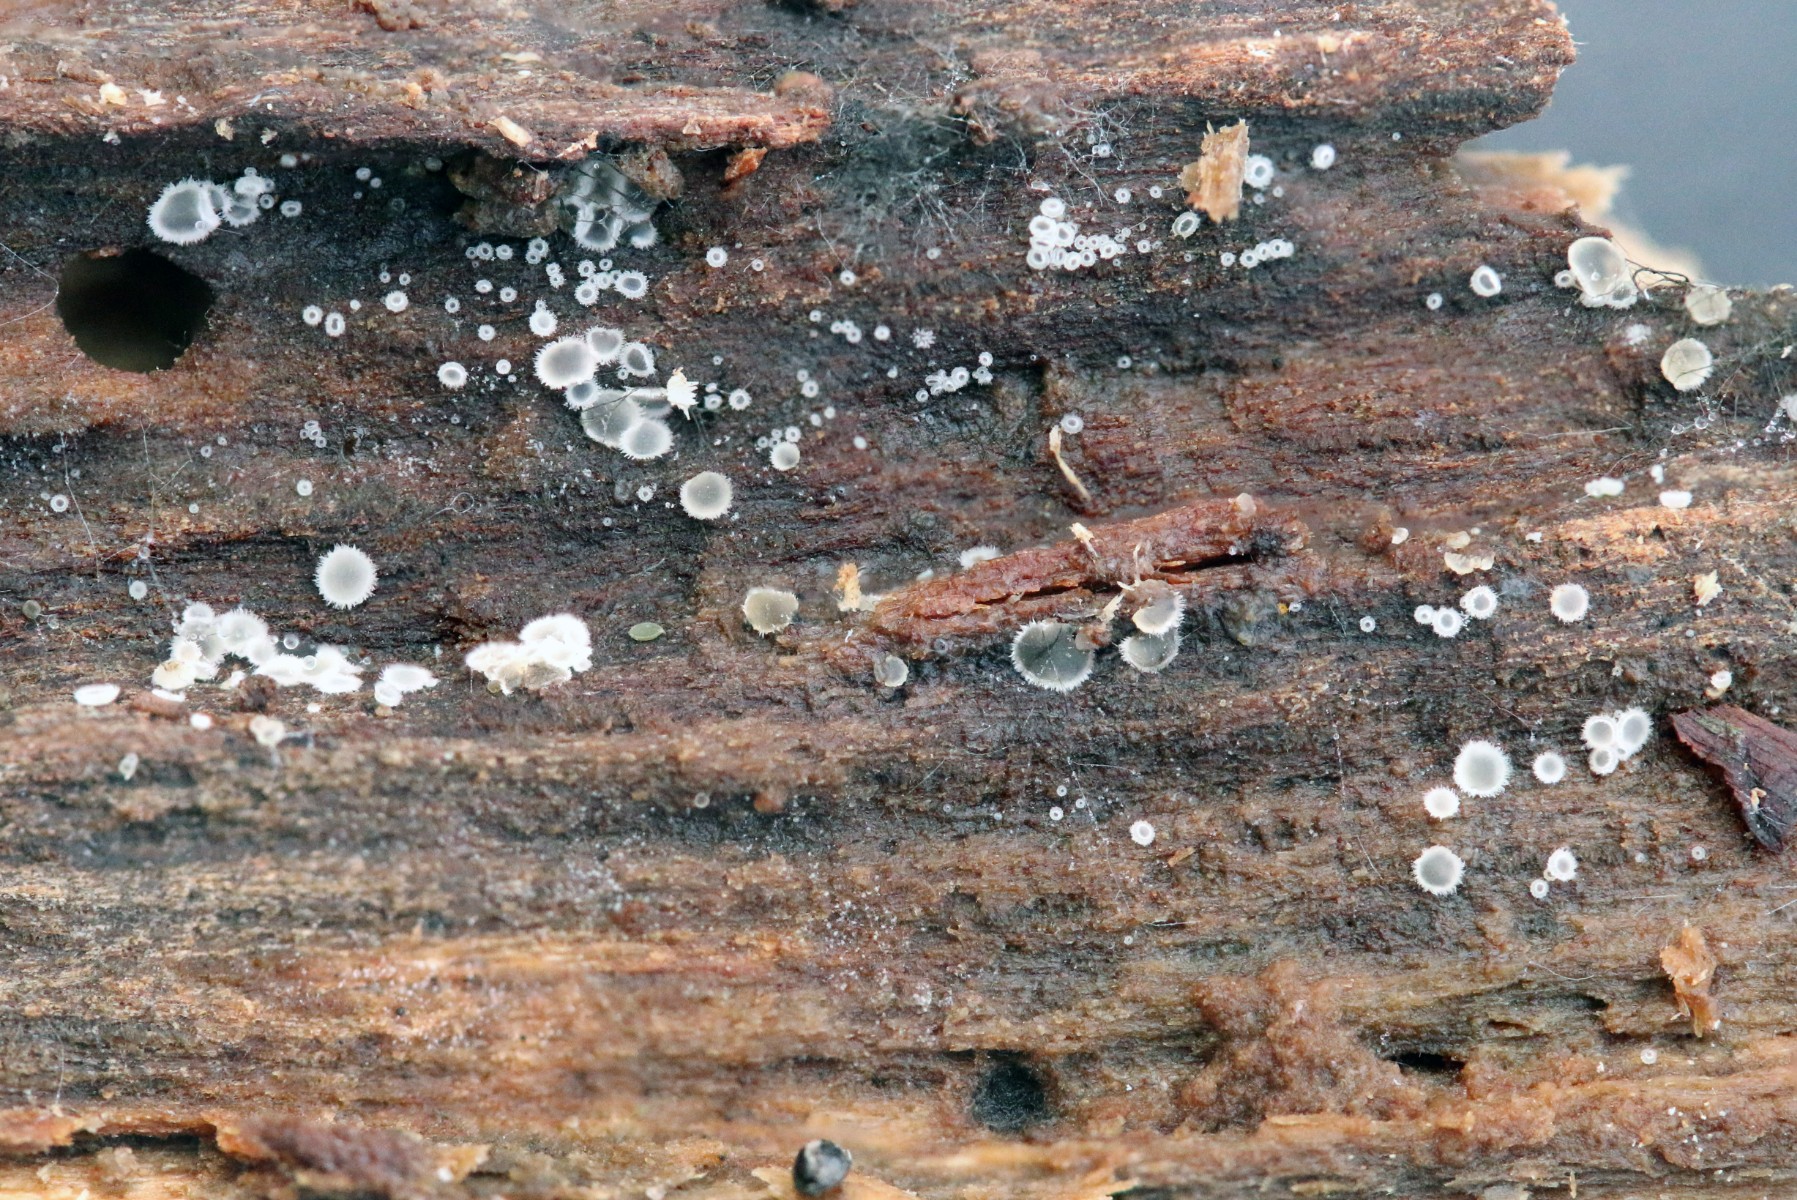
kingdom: Fungi
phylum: Ascomycota
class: Leotiomycetes
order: Helotiales
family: Hyaloscyphaceae
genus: Hyaloscypha
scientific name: Hyaloscypha fuckelii
